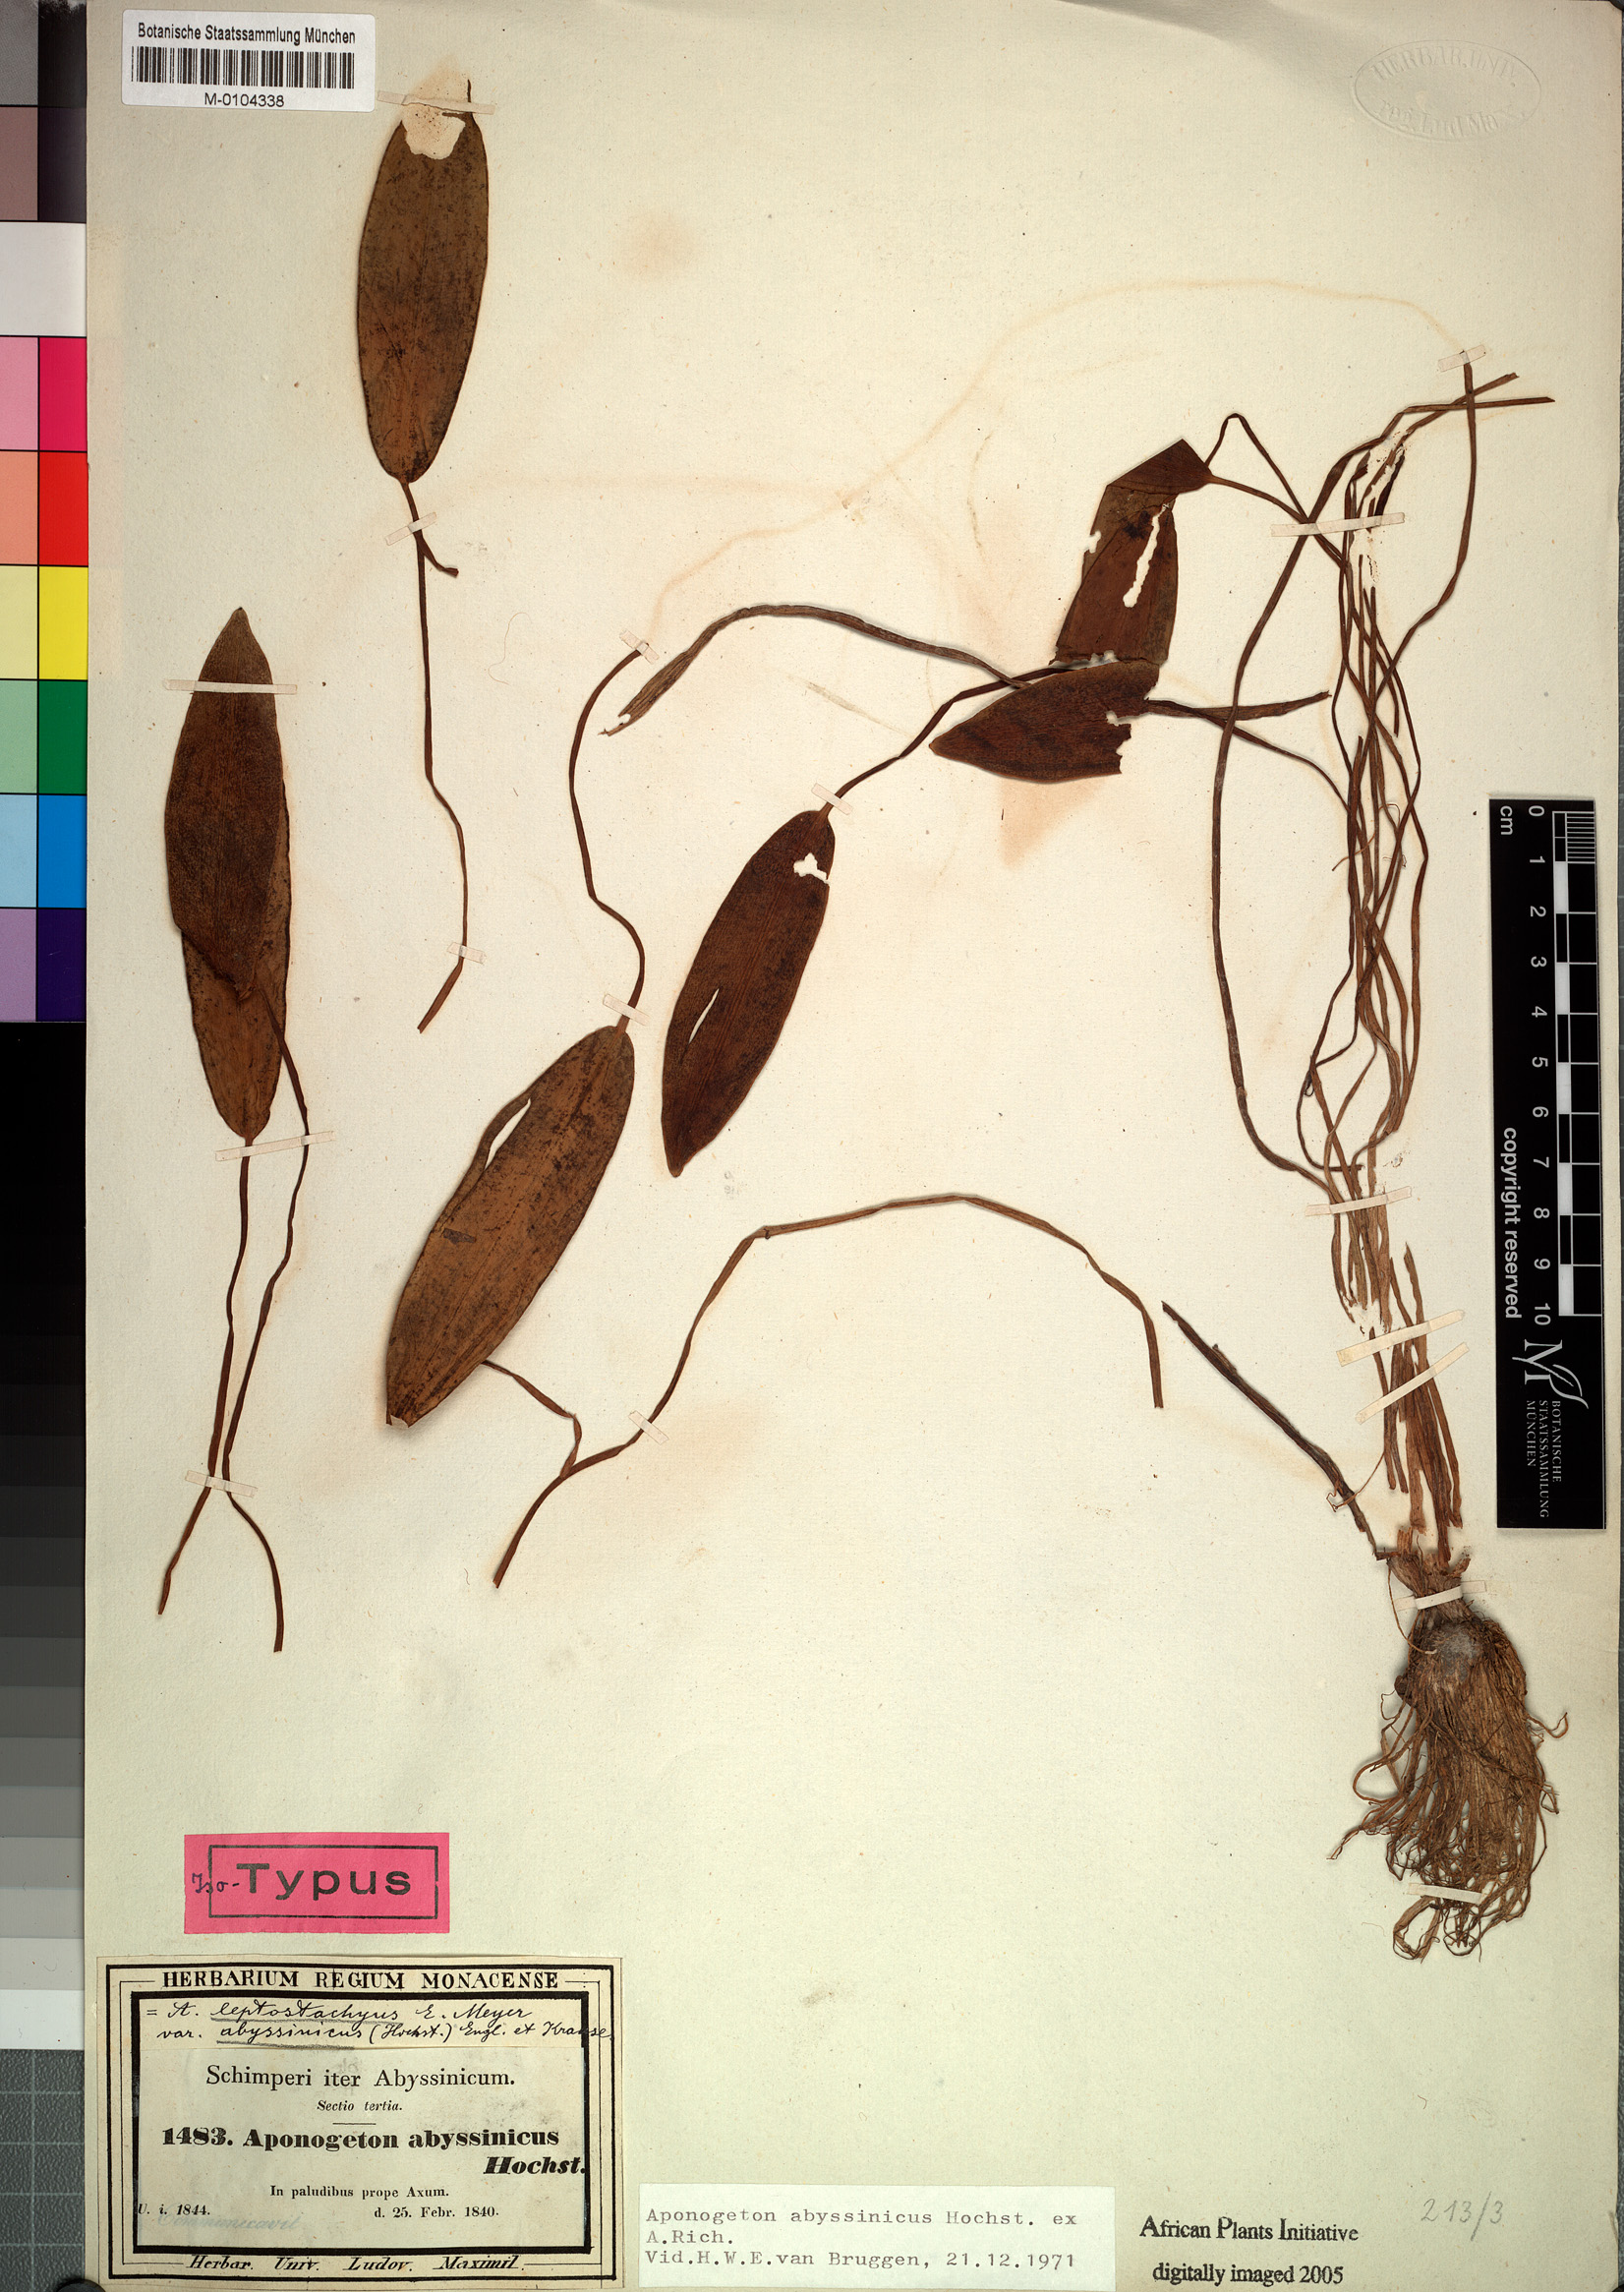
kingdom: Plantae
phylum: Tracheophyta
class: Liliopsida
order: Alismatales
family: Aponogetonaceae
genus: Aponogeton
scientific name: Aponogeton abyssinicus
